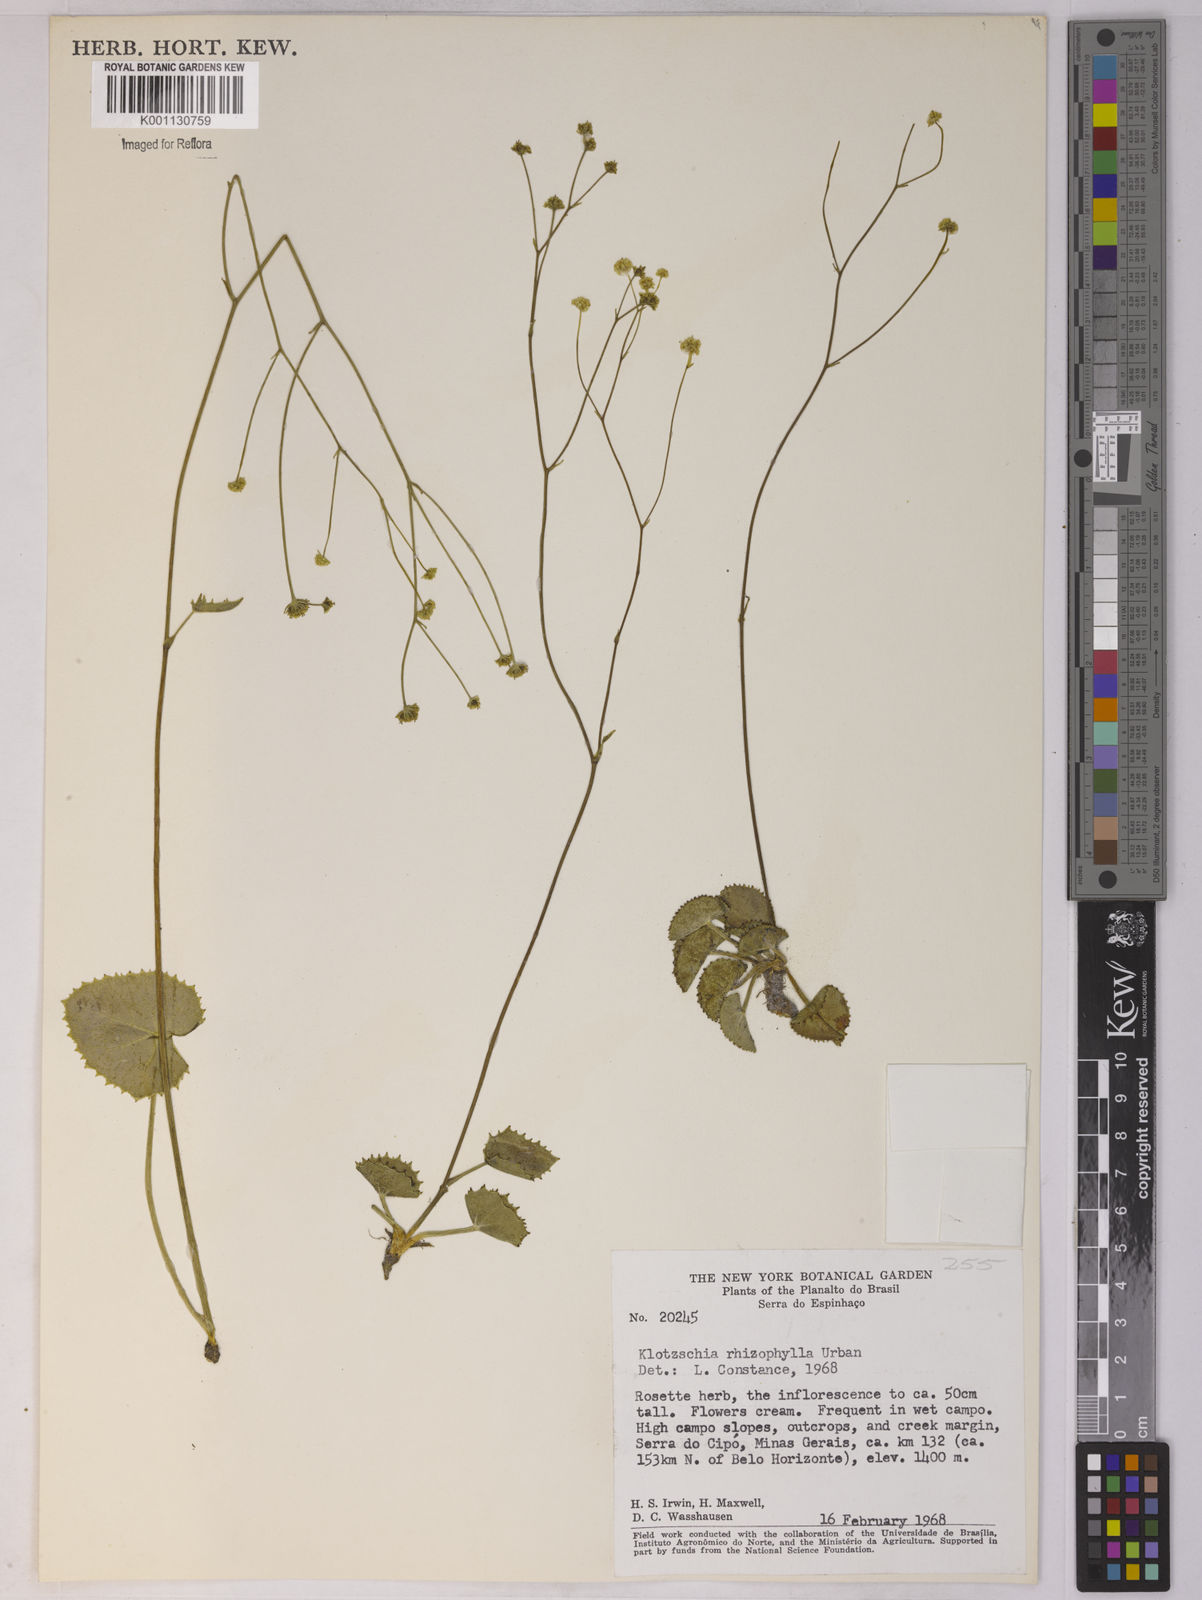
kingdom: Plantae
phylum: Tracheophyta
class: Magnoliopsida
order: Apiales
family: Apiaceae
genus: Klotzschia
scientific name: Klotzschia rhizophylla
